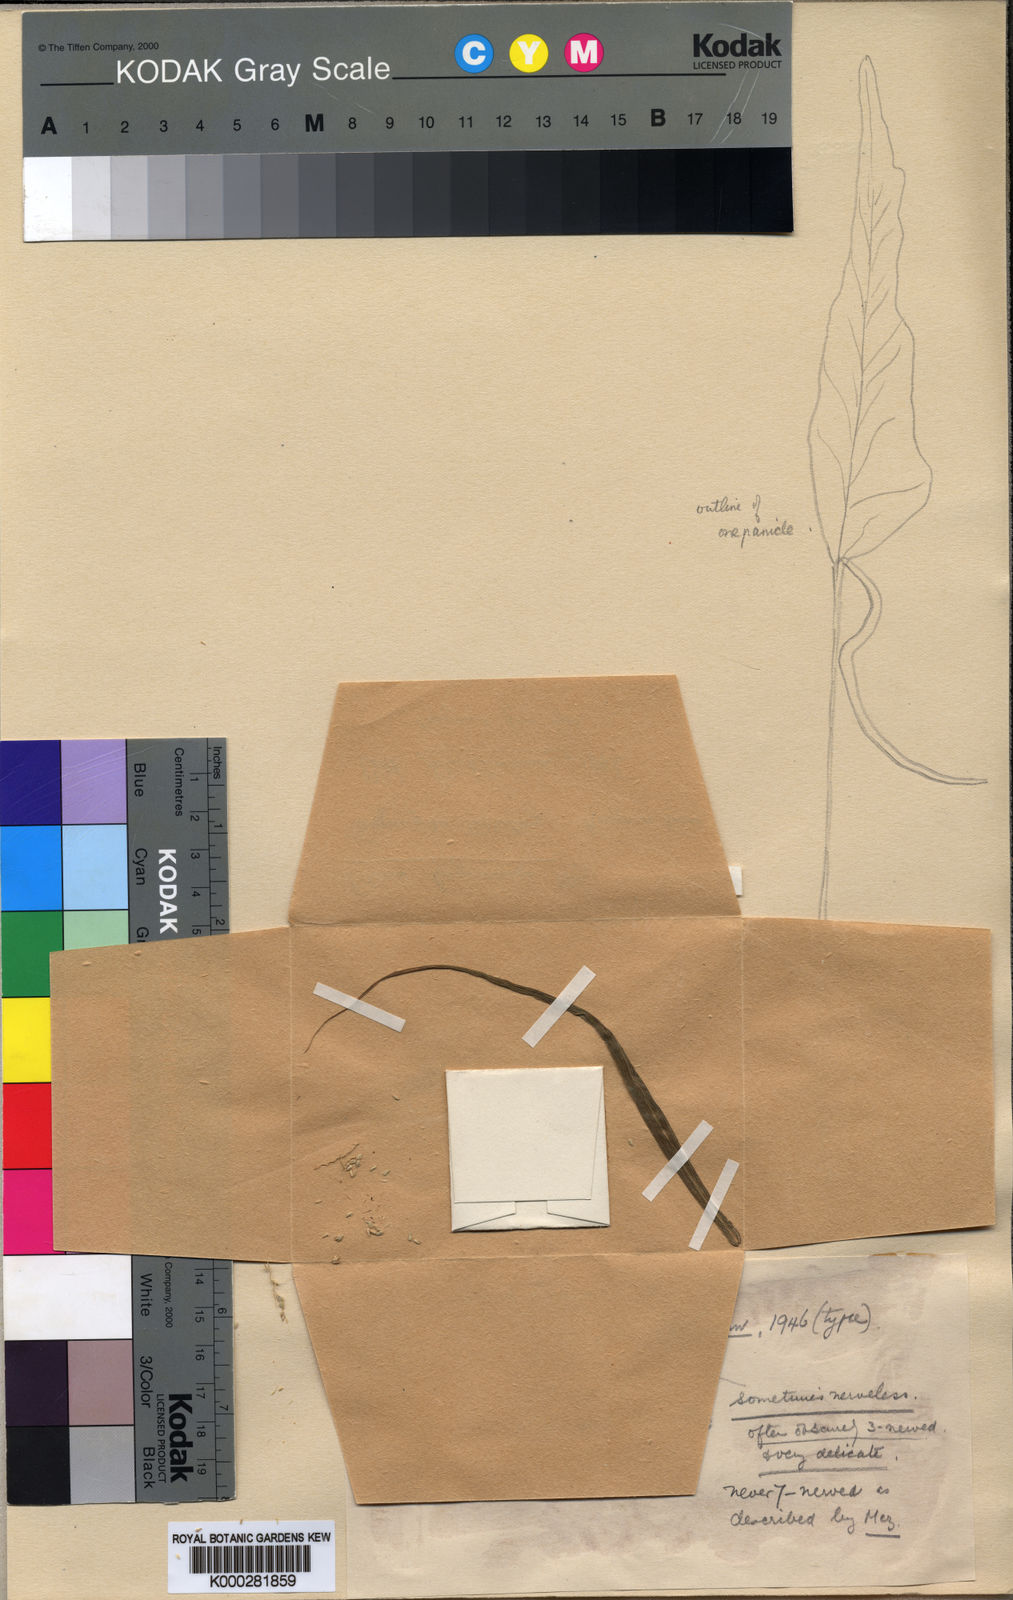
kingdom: Plantae
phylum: Tracheophyta
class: Liliopsida
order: Poales
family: Poaceae
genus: Setaria
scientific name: Setaria kagerensis
